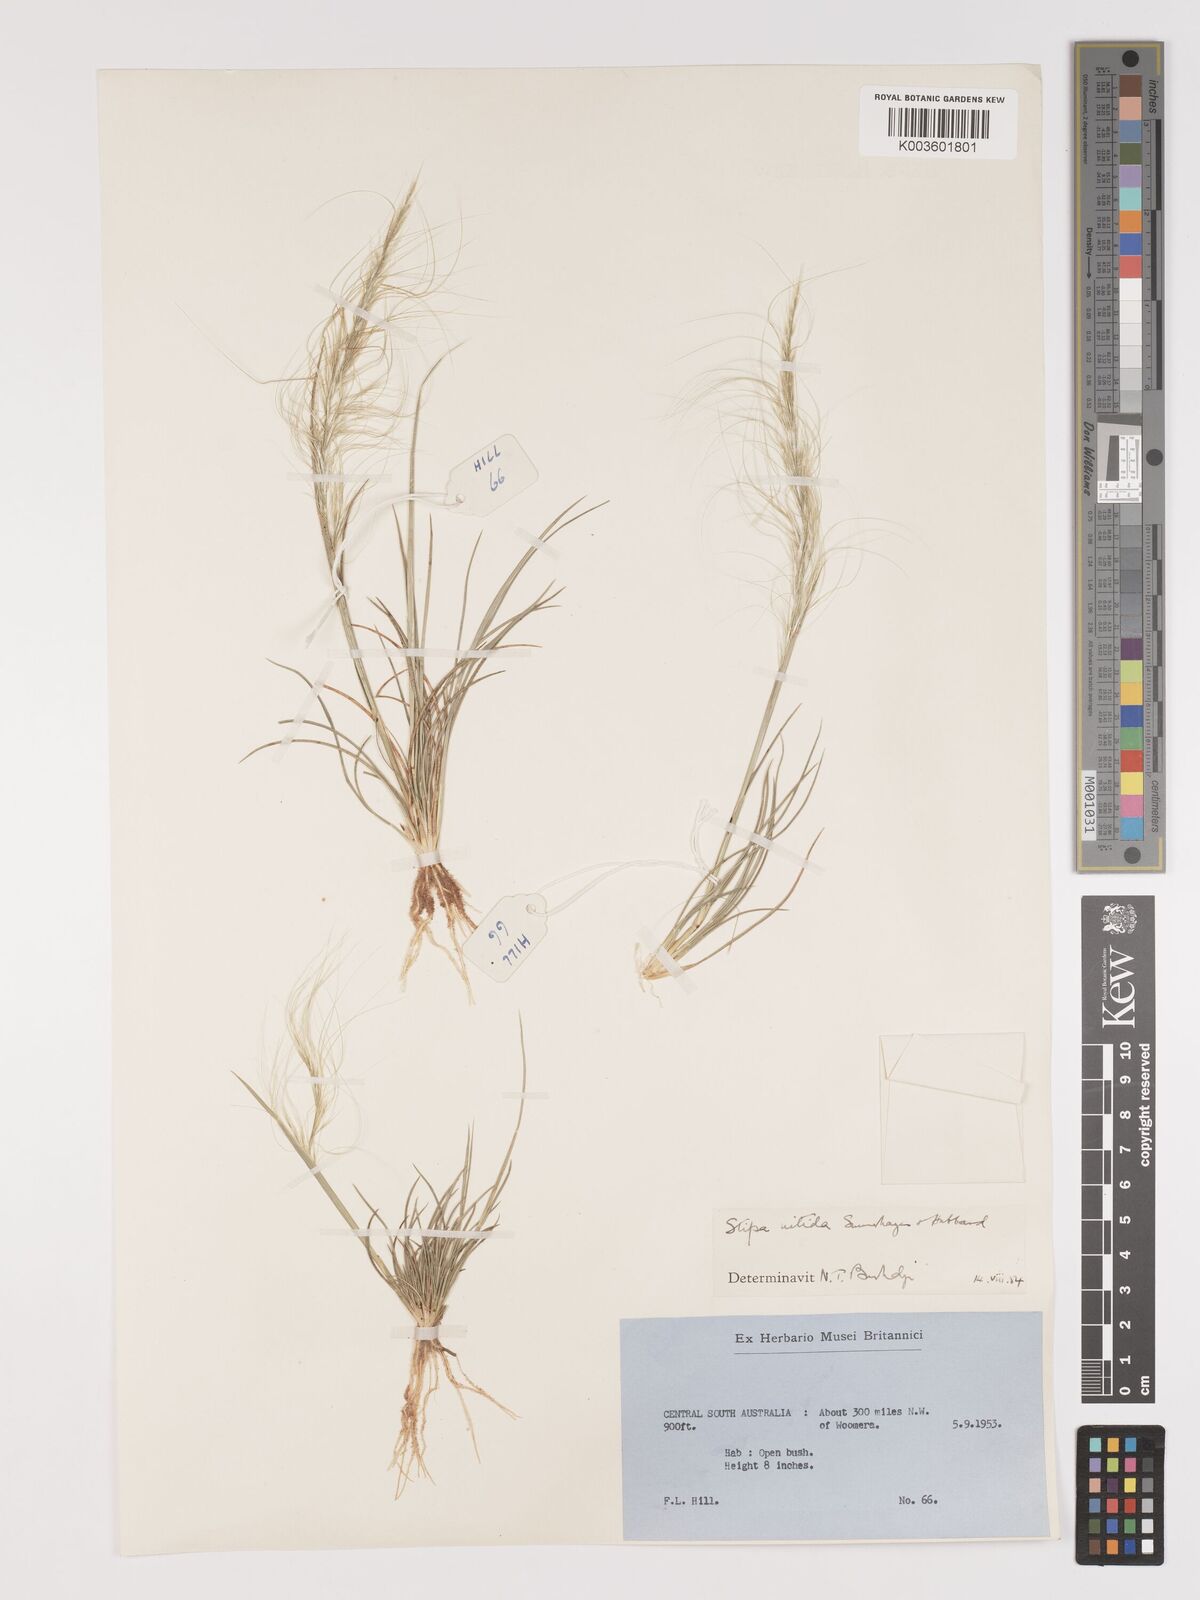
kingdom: Plantae
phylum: Tracheophyta
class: Liliopsida
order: Poales
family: Poaceae
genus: Austrostipa
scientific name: Austrostipa nitida
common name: Balcarra grass
